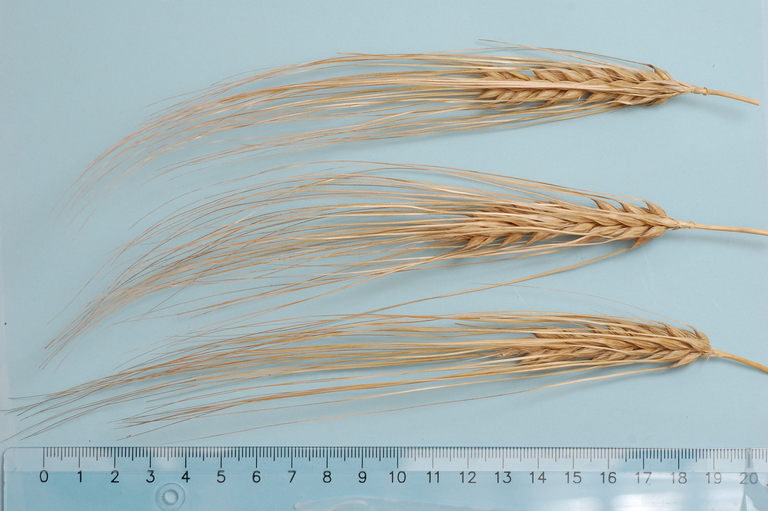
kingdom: Plantae
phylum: Tracheophyta
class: Liliopsida
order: Poales
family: Poaceae
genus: Hordeum
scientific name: Hordeum vulgare
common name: Common barley
